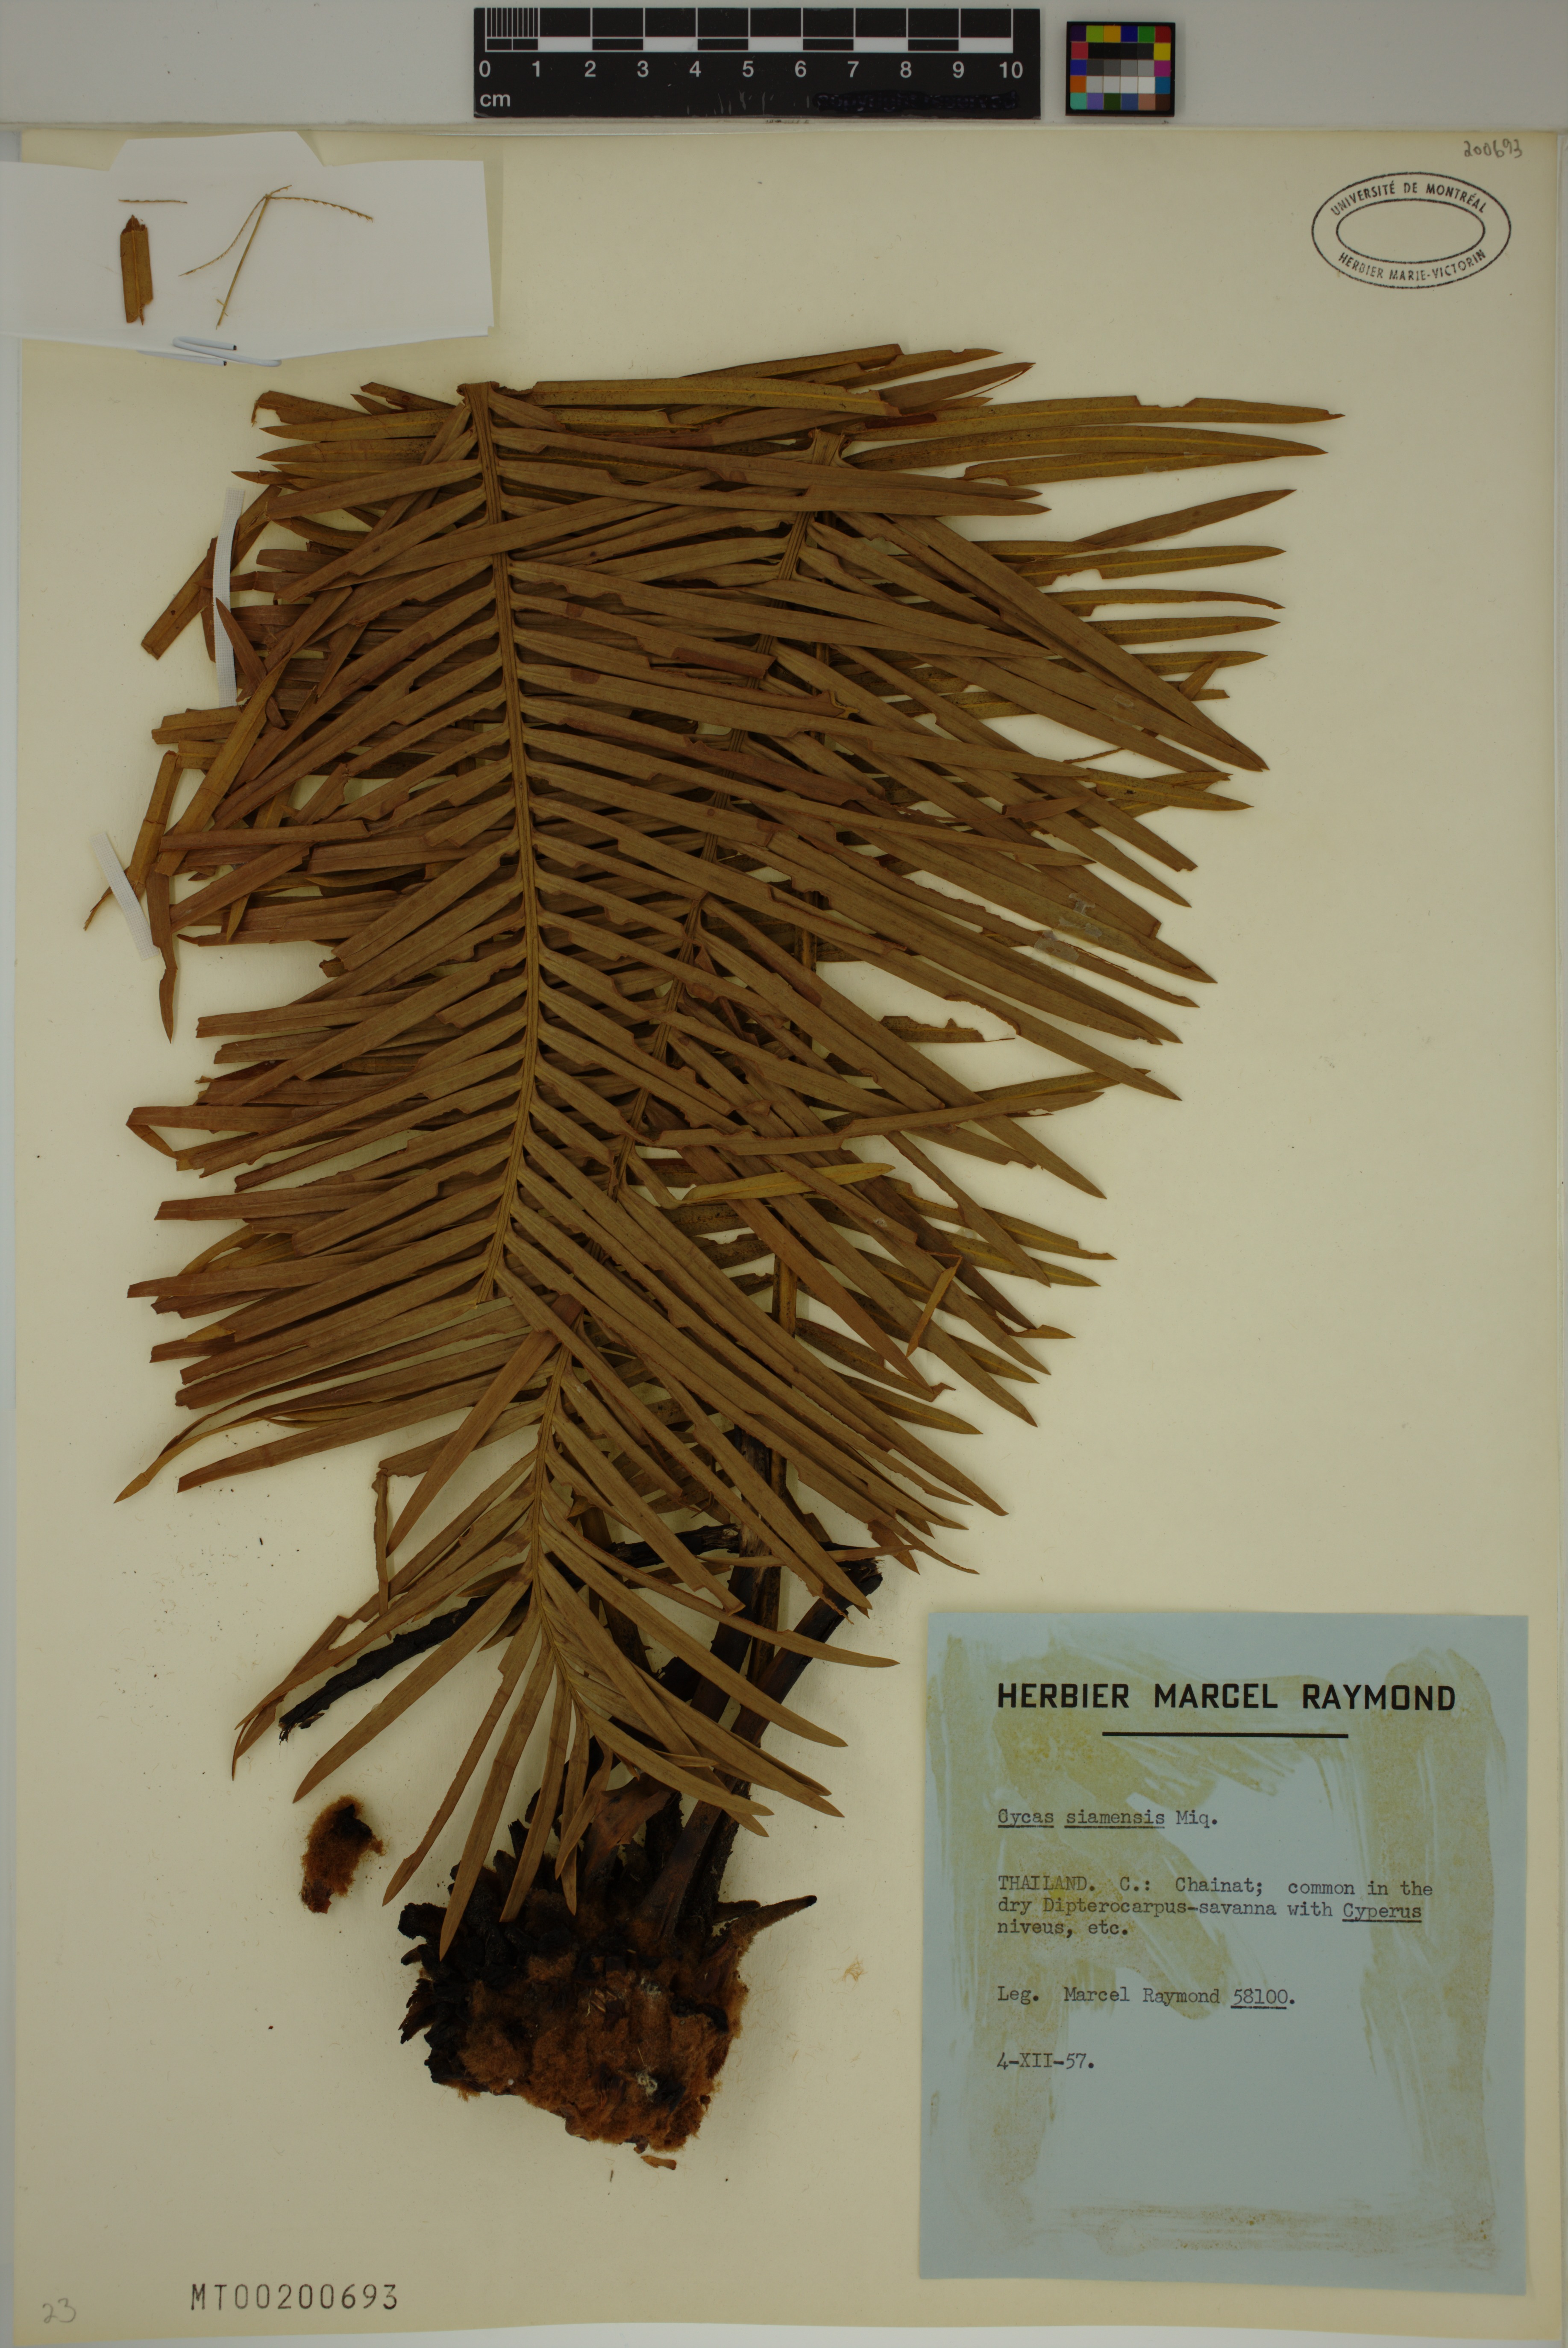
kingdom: Plantae
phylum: Tracheophyta
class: Cycadopsida
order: Cycadales
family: Cycadaceae
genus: Cycas
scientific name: Cycas siamensis
